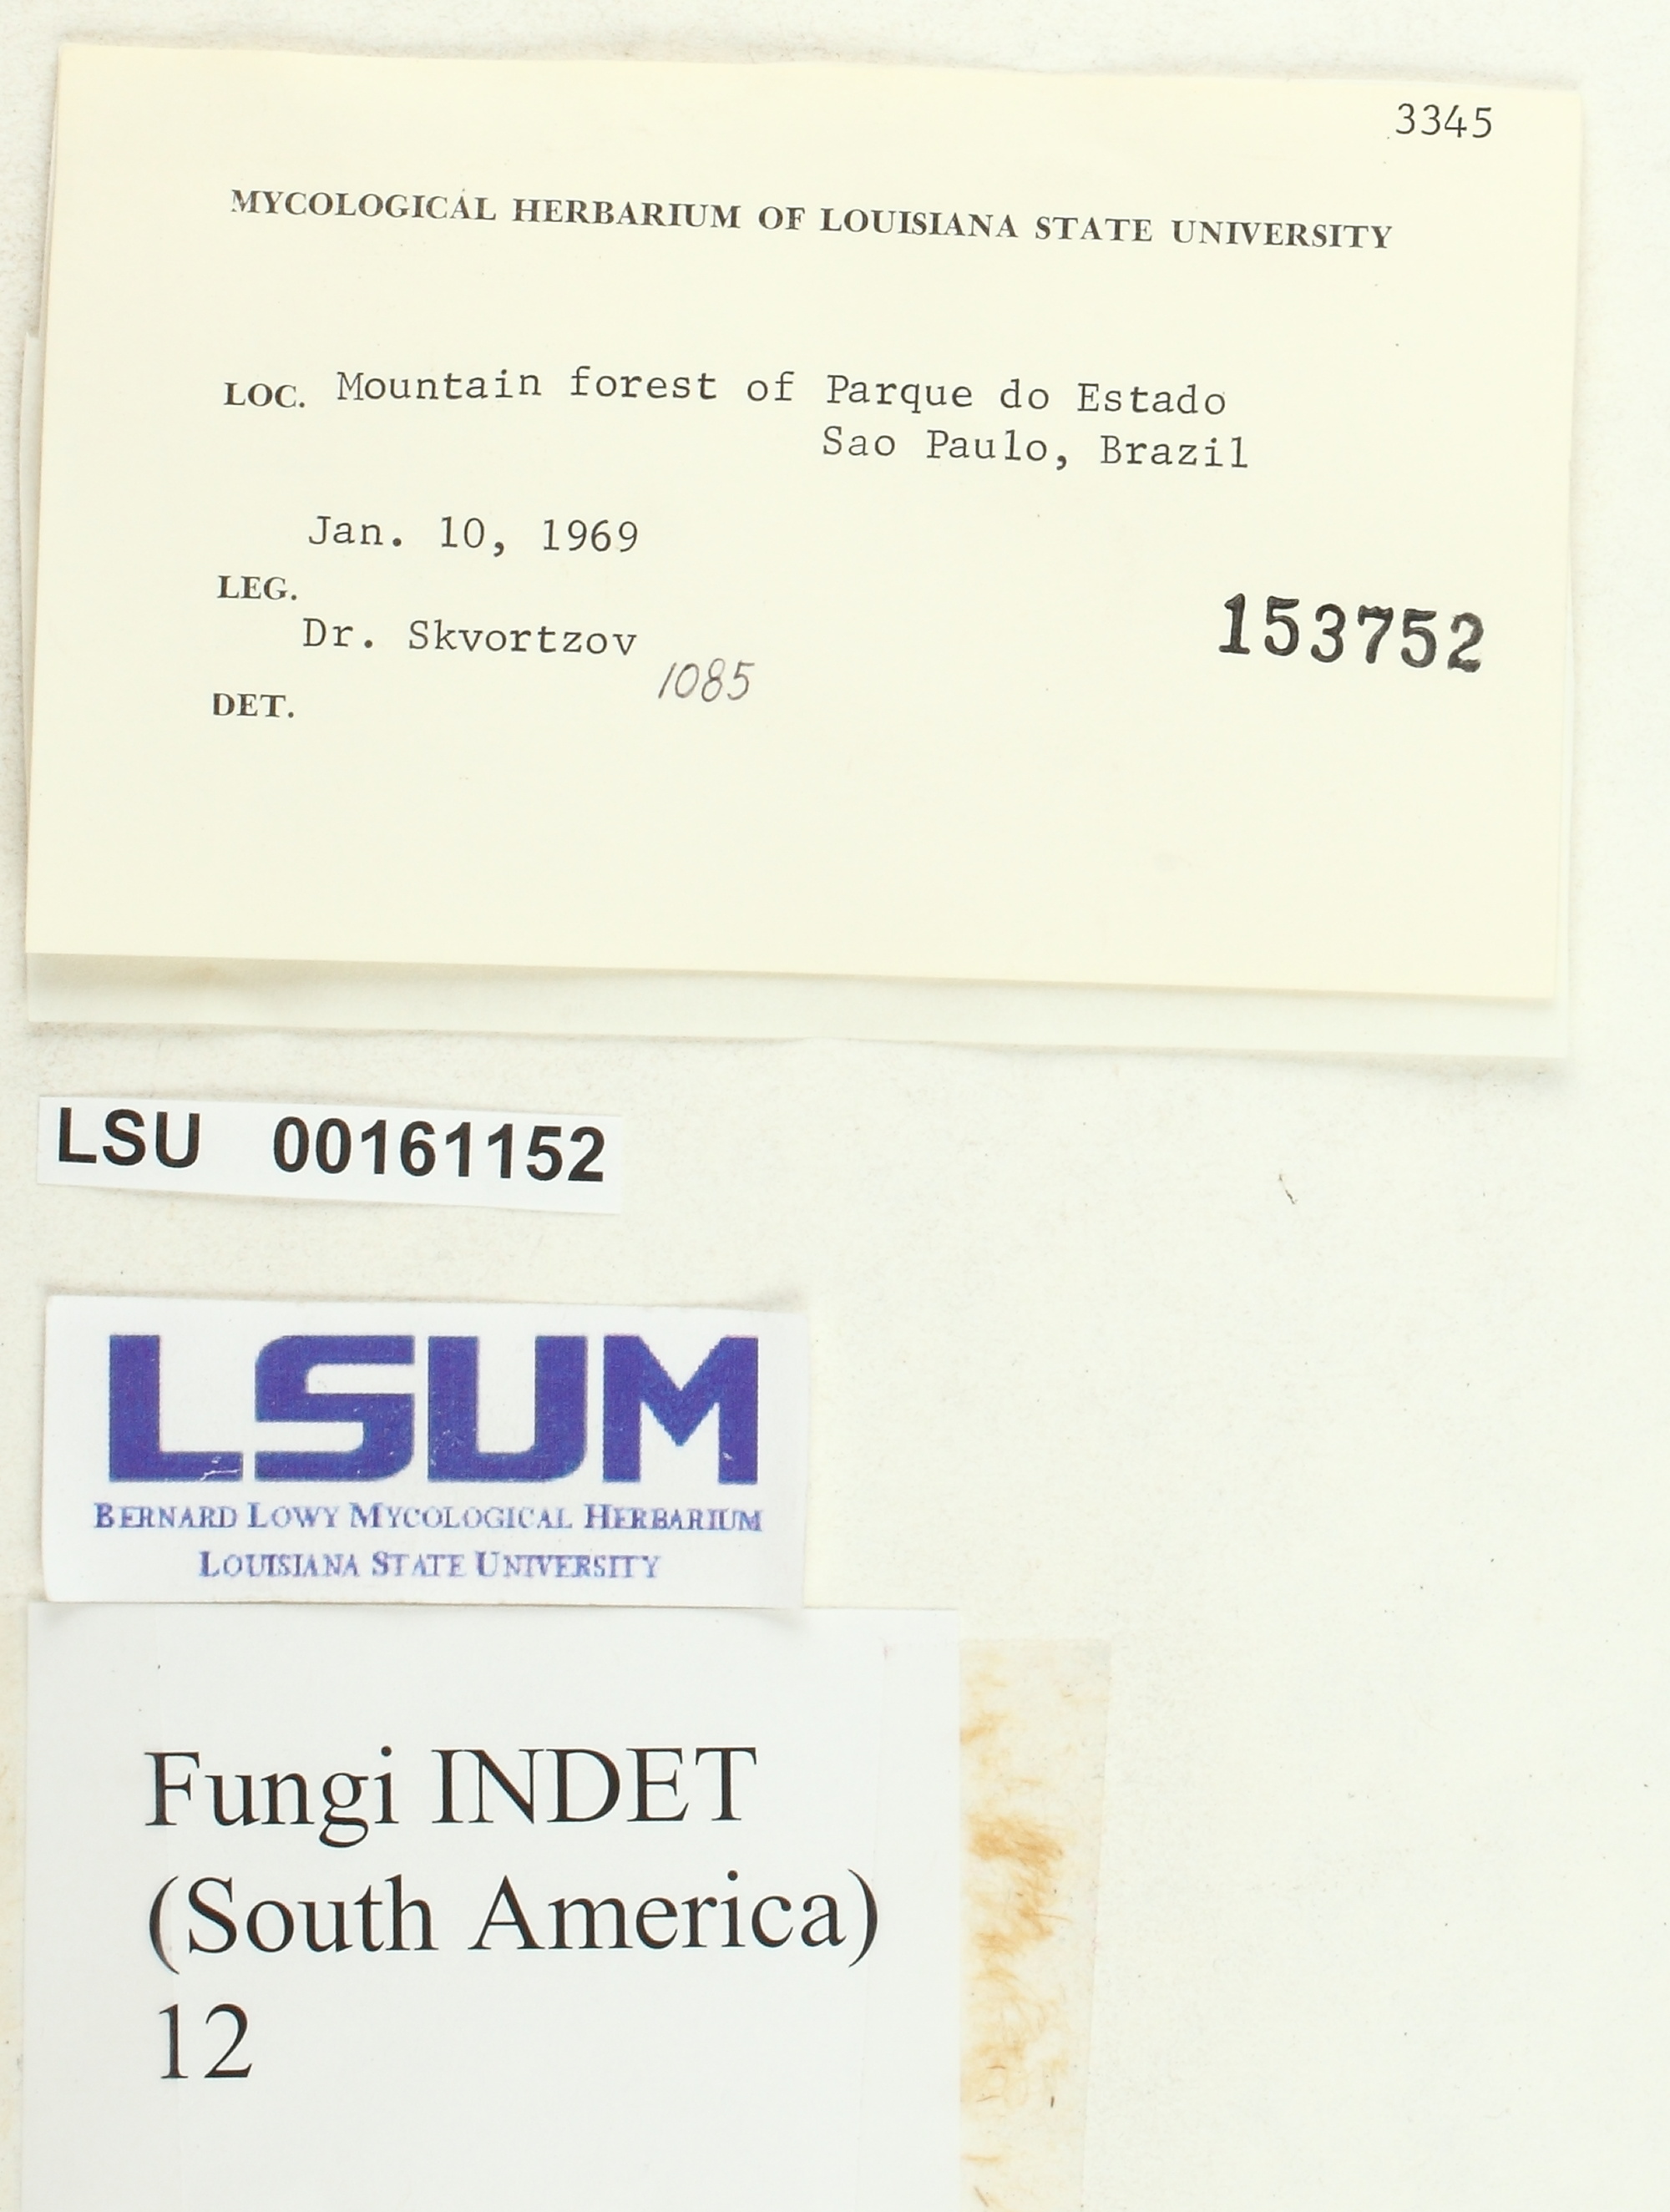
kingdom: Fungi
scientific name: Fungi
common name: Fungi
